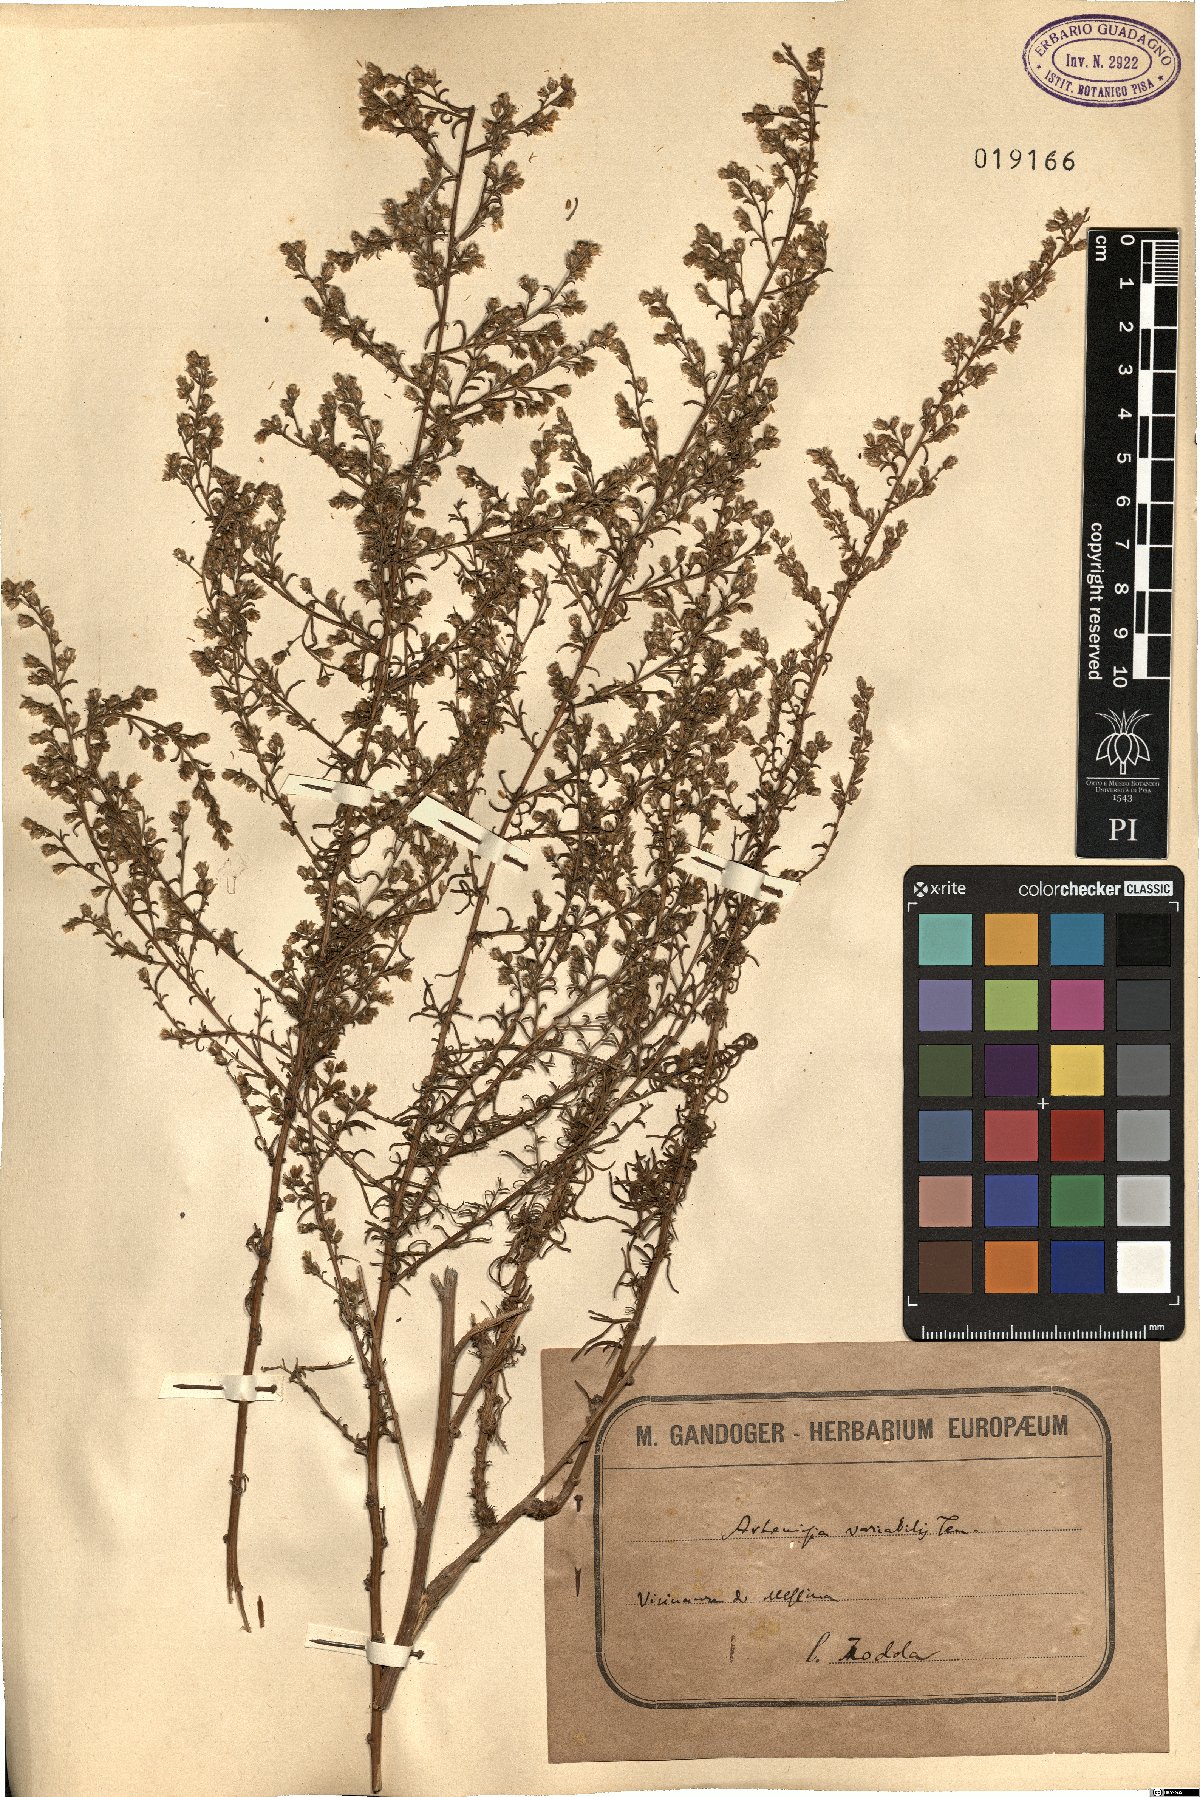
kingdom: Plantae
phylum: Tracheophyta
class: Magnoliopsida
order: Asterales
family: Asteraceae
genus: Artemisia
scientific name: Artemisia campestris
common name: Field wormwood
